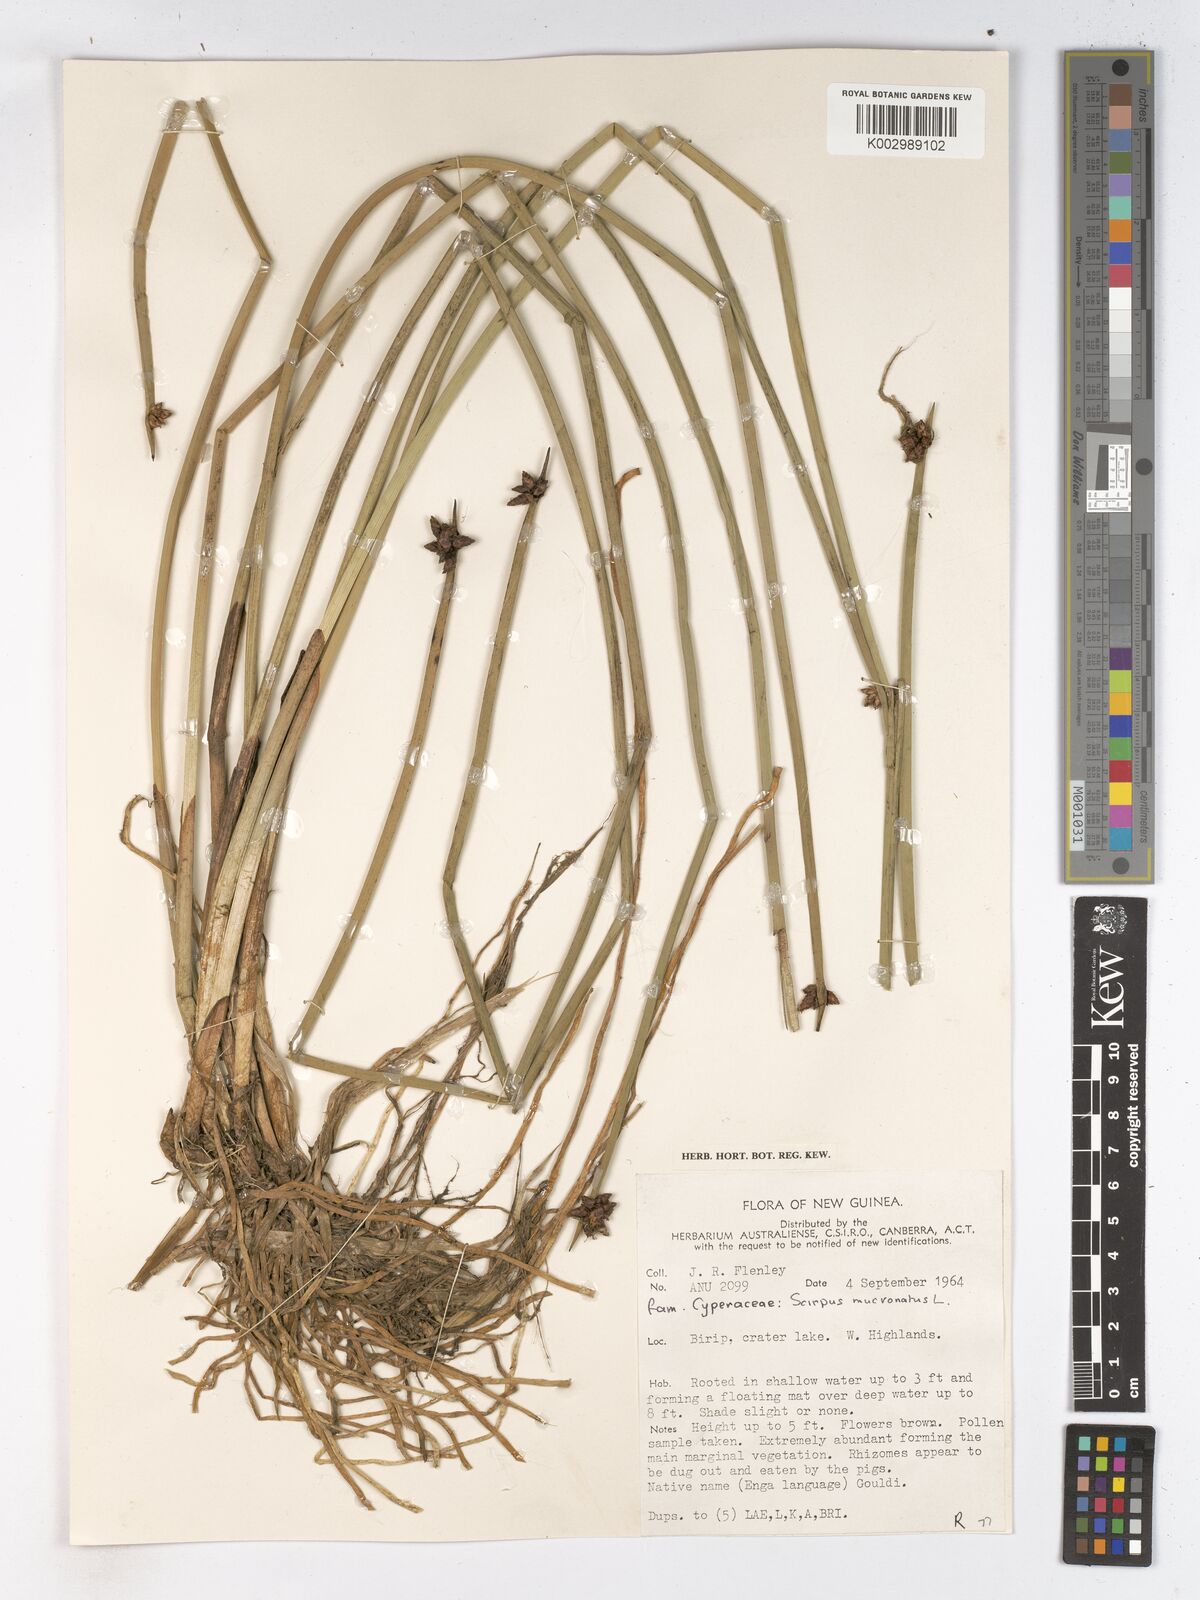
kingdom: Plantae
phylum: Tracheophyta
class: Liliopsida
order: Poales
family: Cyperaceae
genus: Schoenoplectiella
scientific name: Schoenoplectiella mucronata
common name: Bog bulrush
